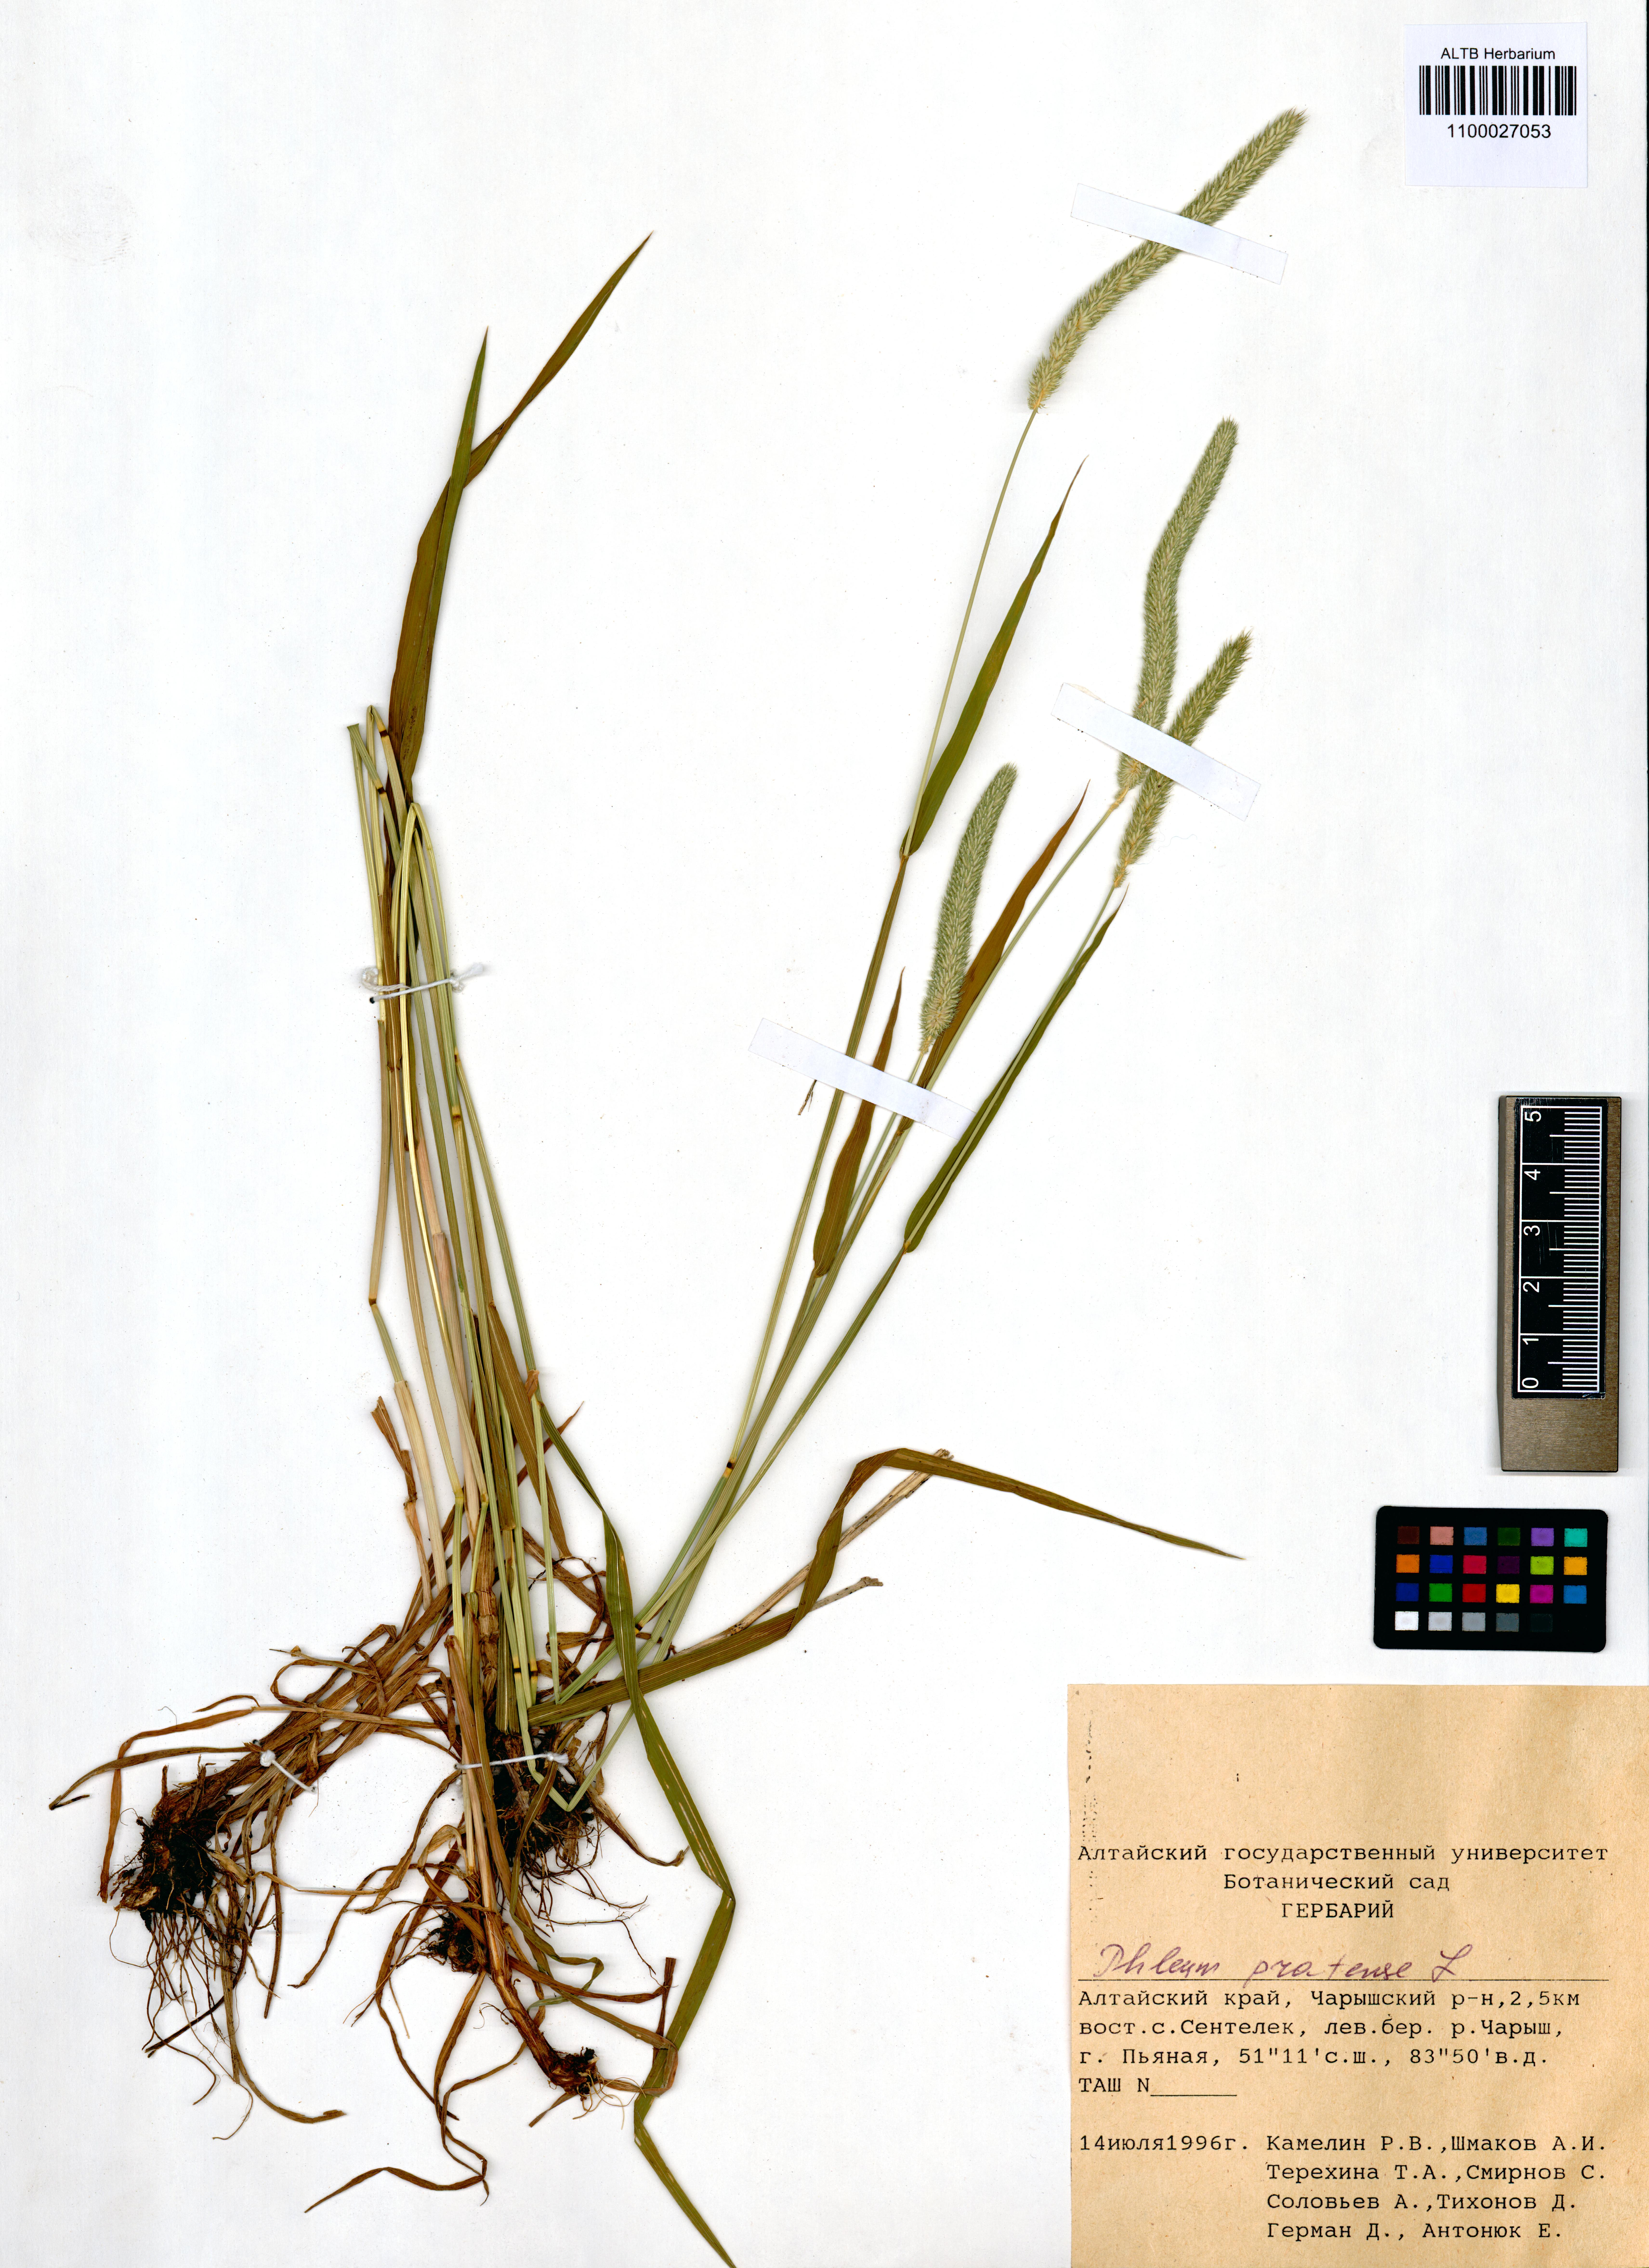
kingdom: Plantae
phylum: Tracheophyta
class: Liliopsida
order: Poales
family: Poaceae
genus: Phleum
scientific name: Phleum pratense
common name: Timothy grass
